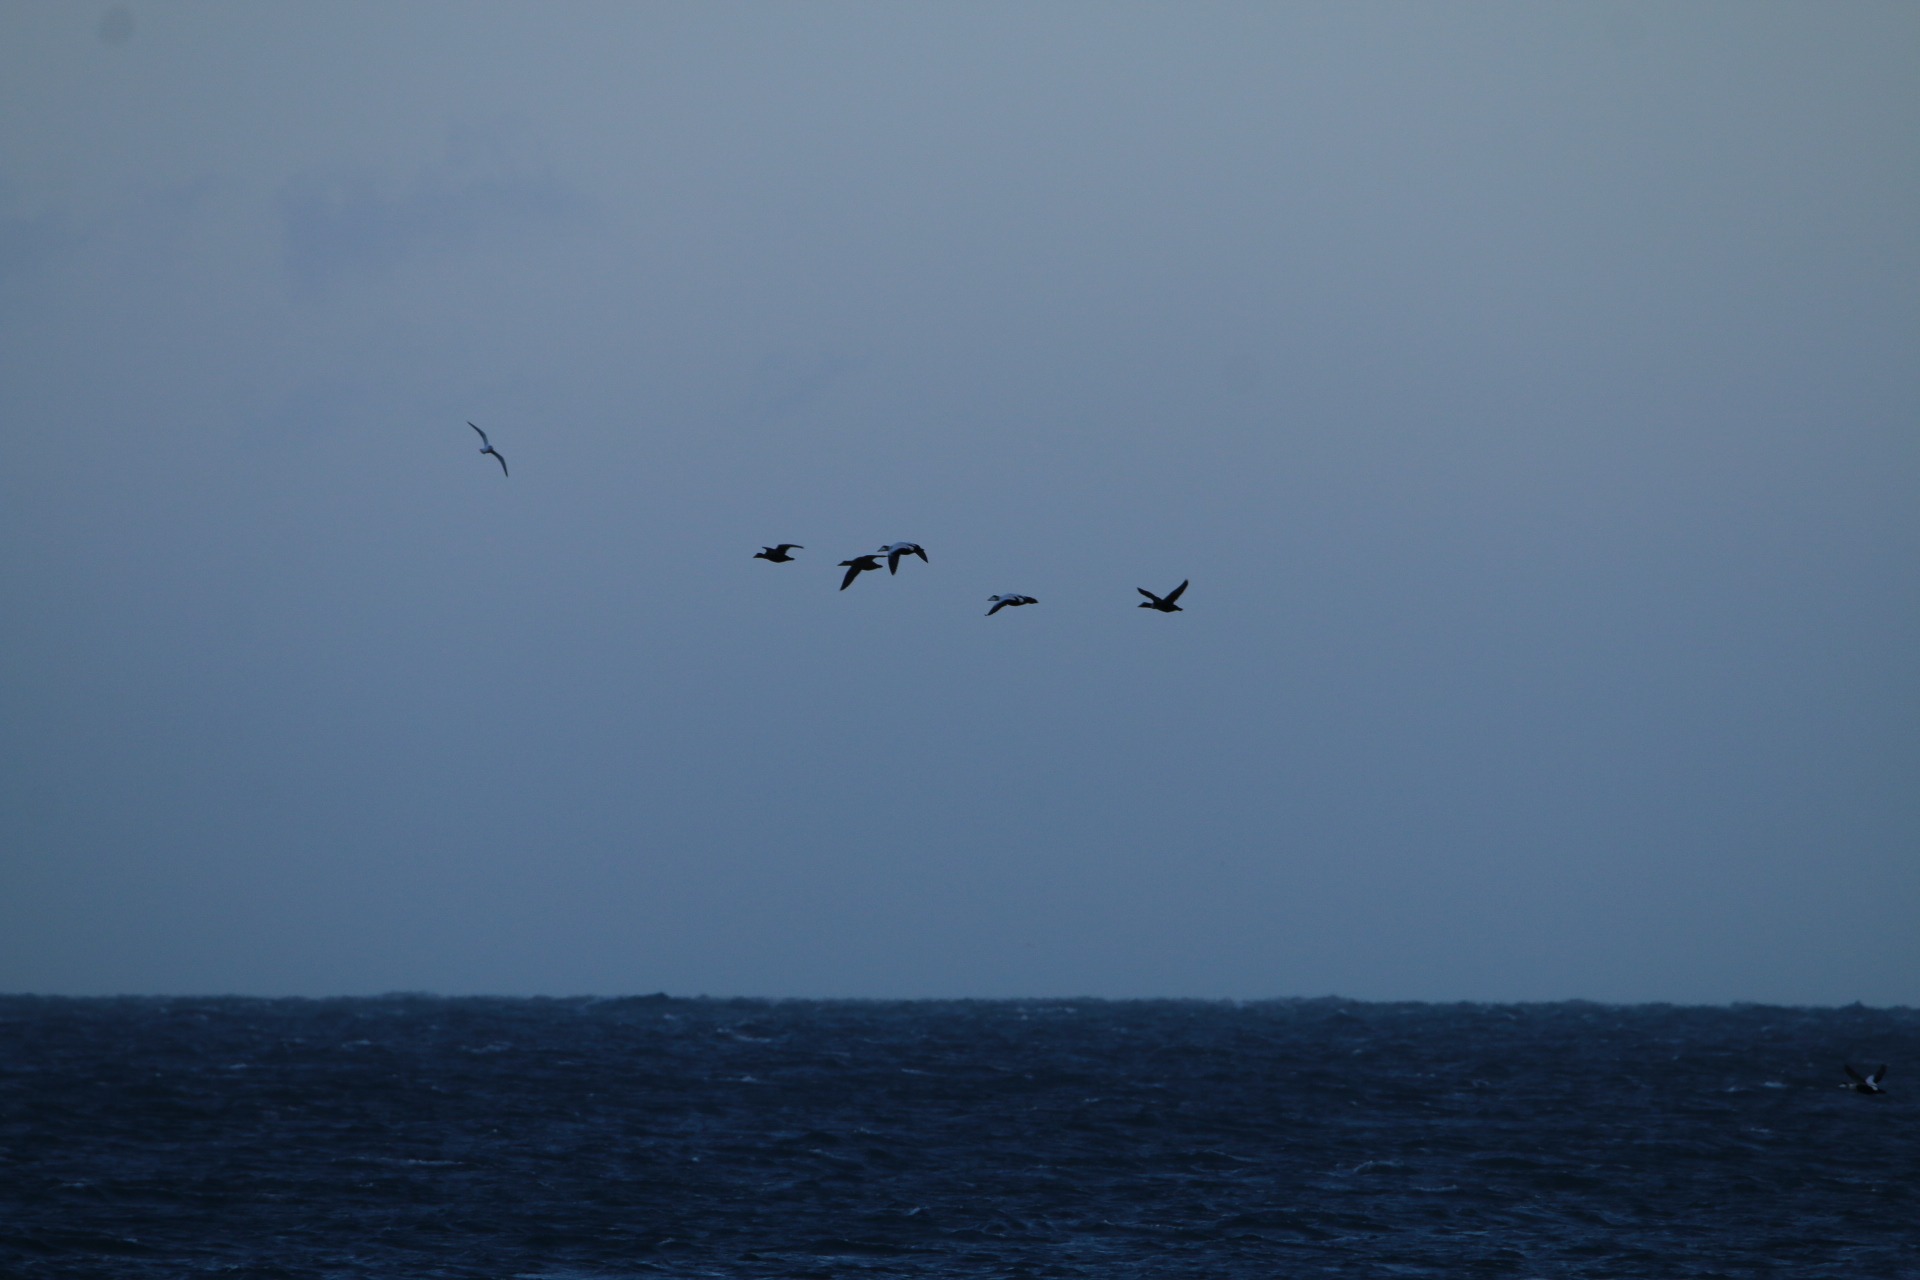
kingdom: Animalia
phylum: Chordata
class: Aves
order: Anseriformes
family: Anatidae
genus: Somateria
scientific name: Somateria mollissima
